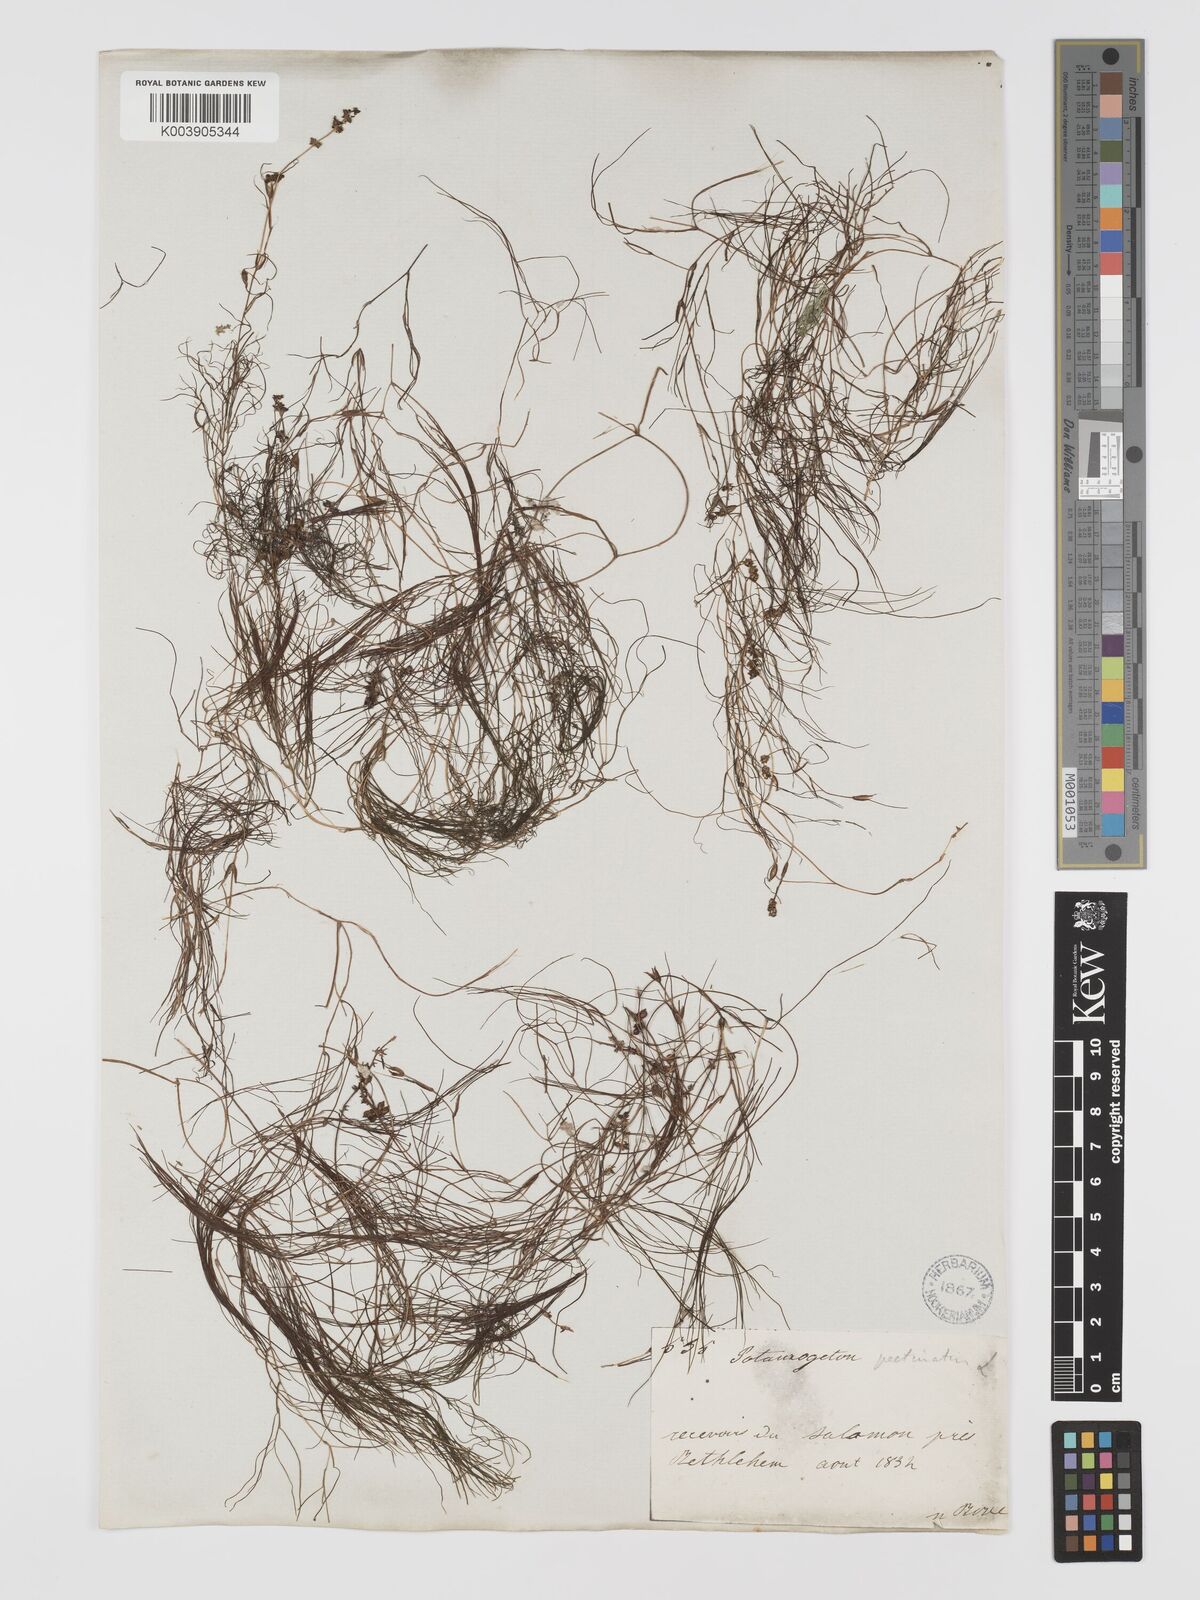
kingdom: Plantae
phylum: Tracheophyta
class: Liliopsida
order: Alismatales
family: Potamogetonaceae
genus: Stuckenia
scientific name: Stuckenia pectinata
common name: Sago pondweed
